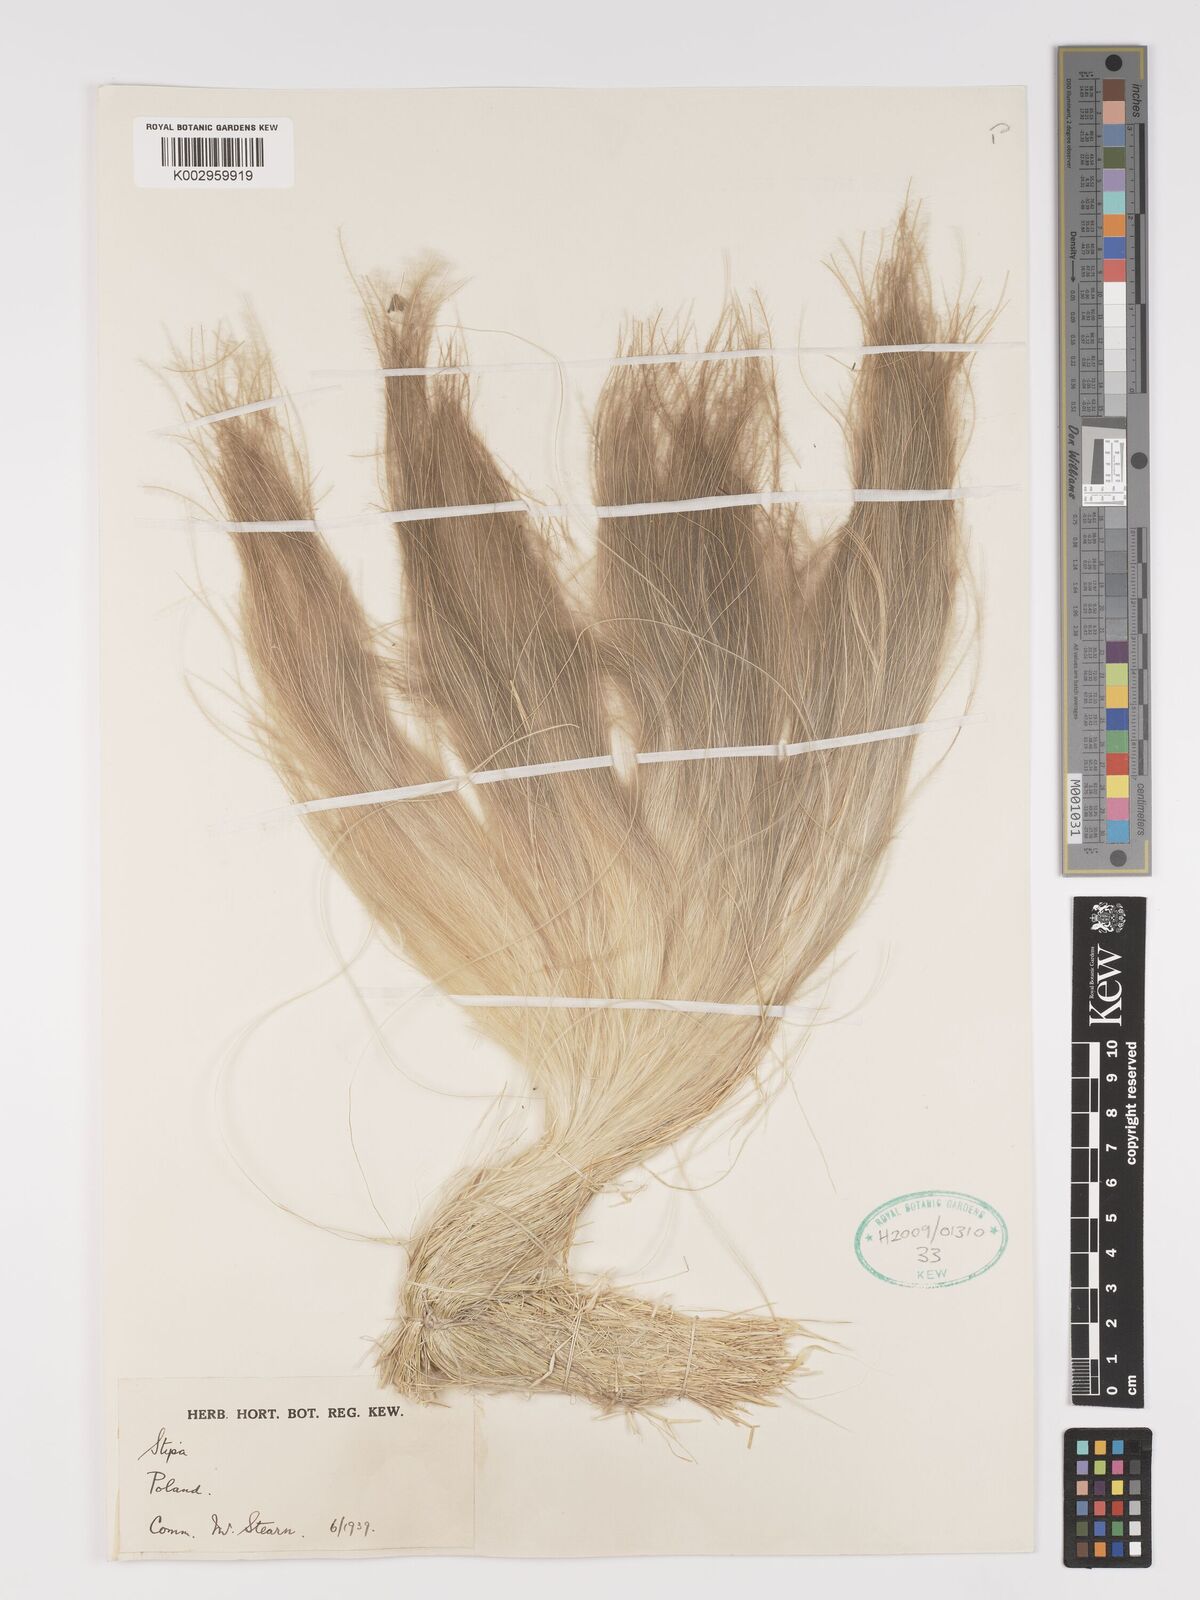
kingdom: Plantae
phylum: Tracheophyta
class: Liliopsida
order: Poales
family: Poaceae
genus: Stipa
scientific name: Stipa
